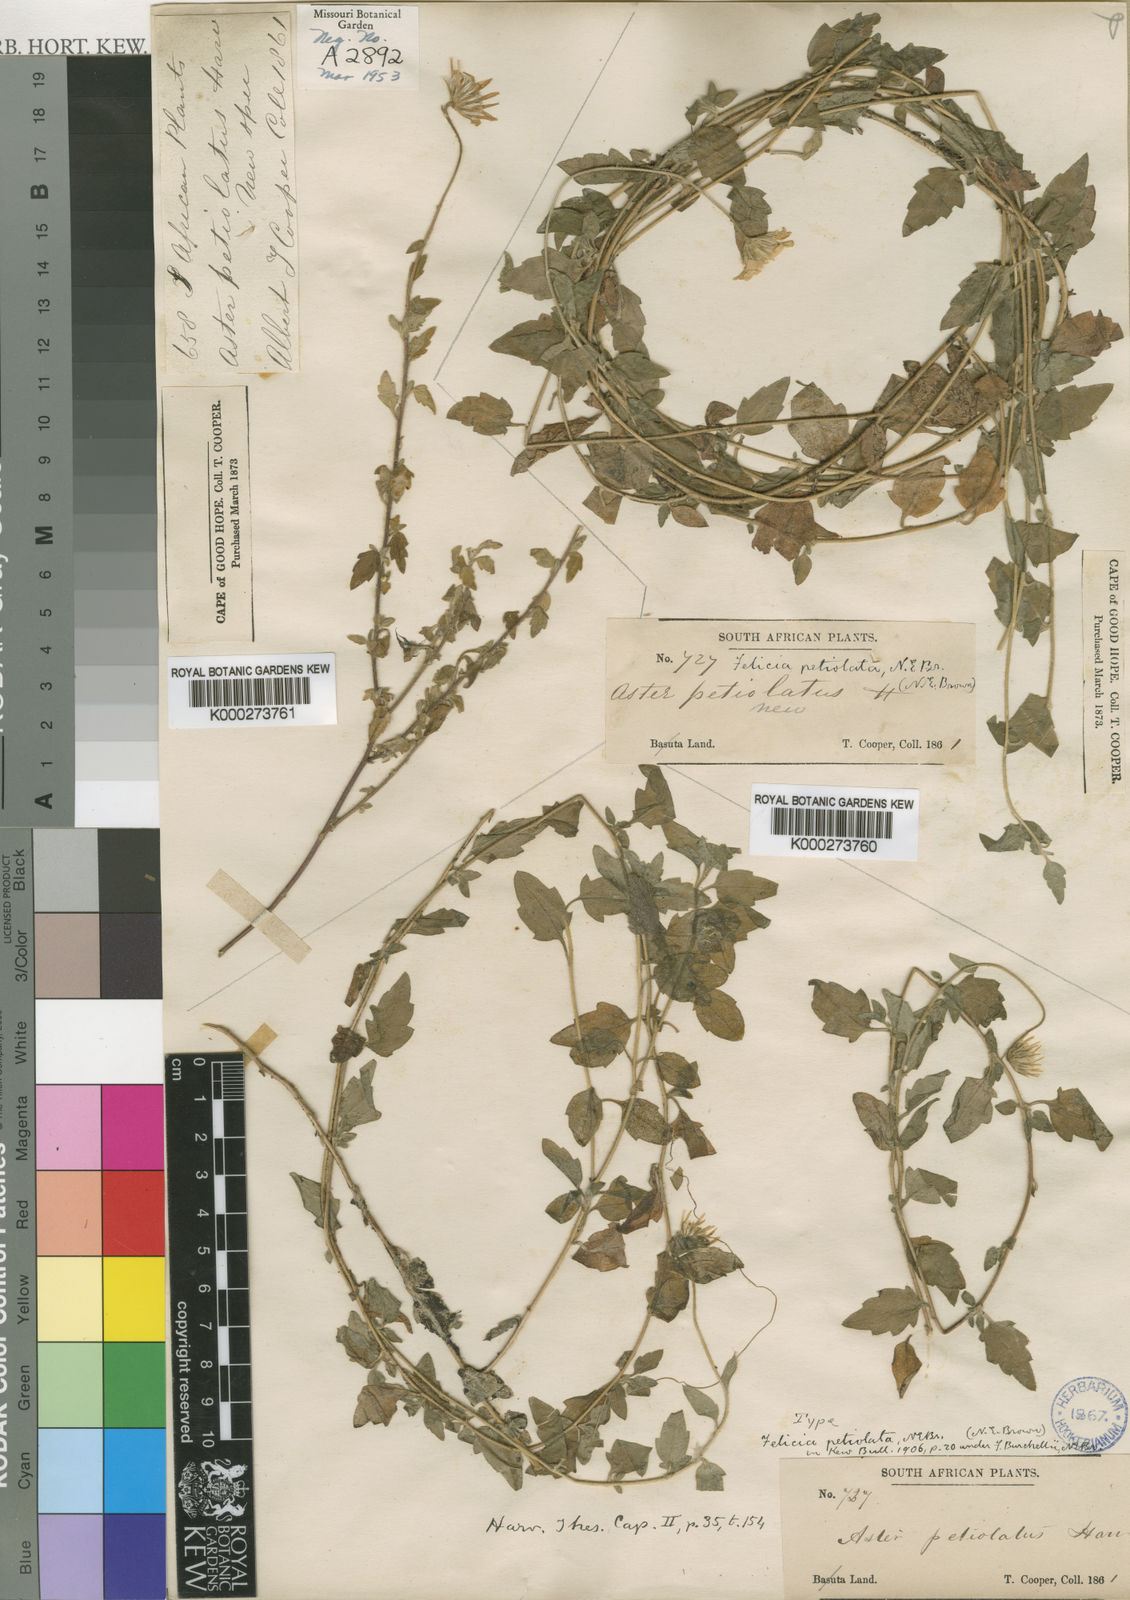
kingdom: Plantae
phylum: Tracheophyta
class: Magnoliopsida
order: Asterales
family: Asteraceae
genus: Felicia
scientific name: Felicia petiolata
